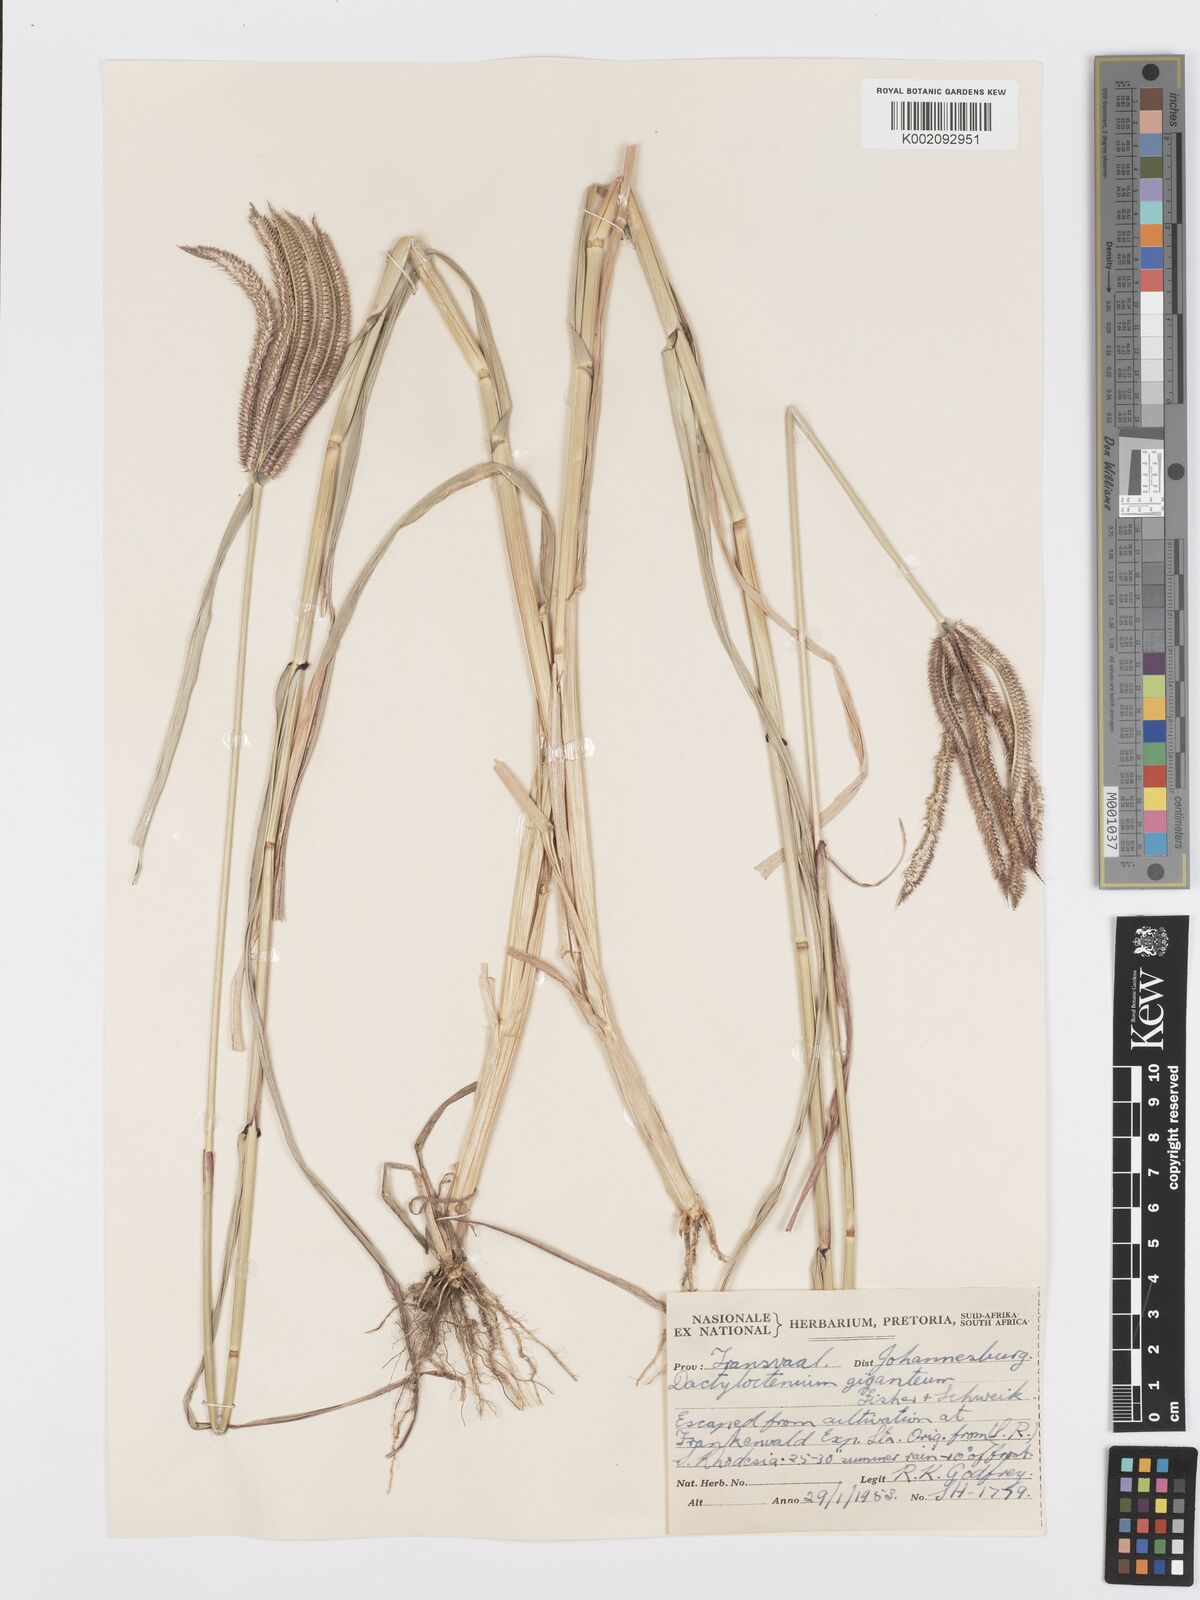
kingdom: Plantae
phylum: Tracheophyta
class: Liliopsida
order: Poales
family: Poaceae
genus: Dactyloctenium
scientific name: Dactyloctenium giganteum
